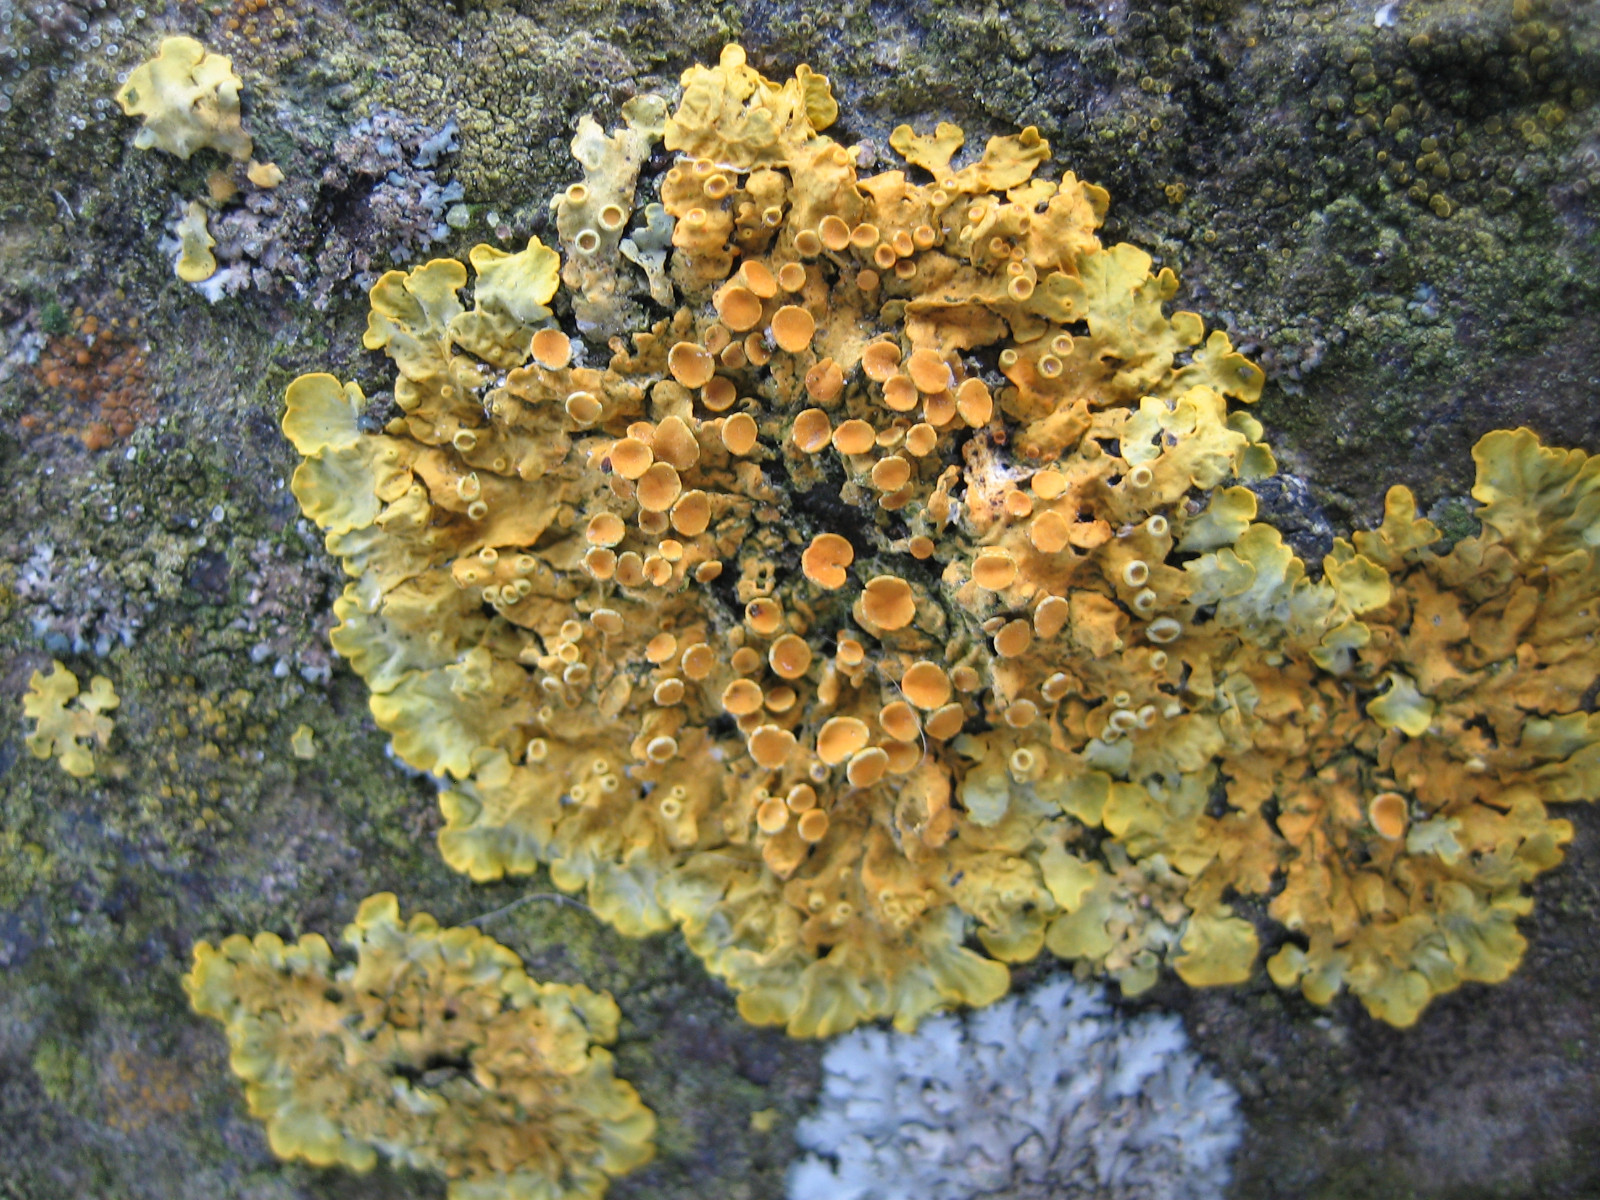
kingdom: Fungi
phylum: Ascomycota
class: Lecanoromycetes
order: Teloschistales
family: Teloschistaceae
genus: Xanthoria
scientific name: Xanthoria parietina
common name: almindelig væggelav
